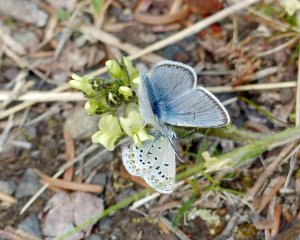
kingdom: Animalia
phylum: Arthropoda
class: Insecta
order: Lepidoptera
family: Lycaenidae
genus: Plebejus
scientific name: Plebejus saepiolus
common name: Greenish Blue
